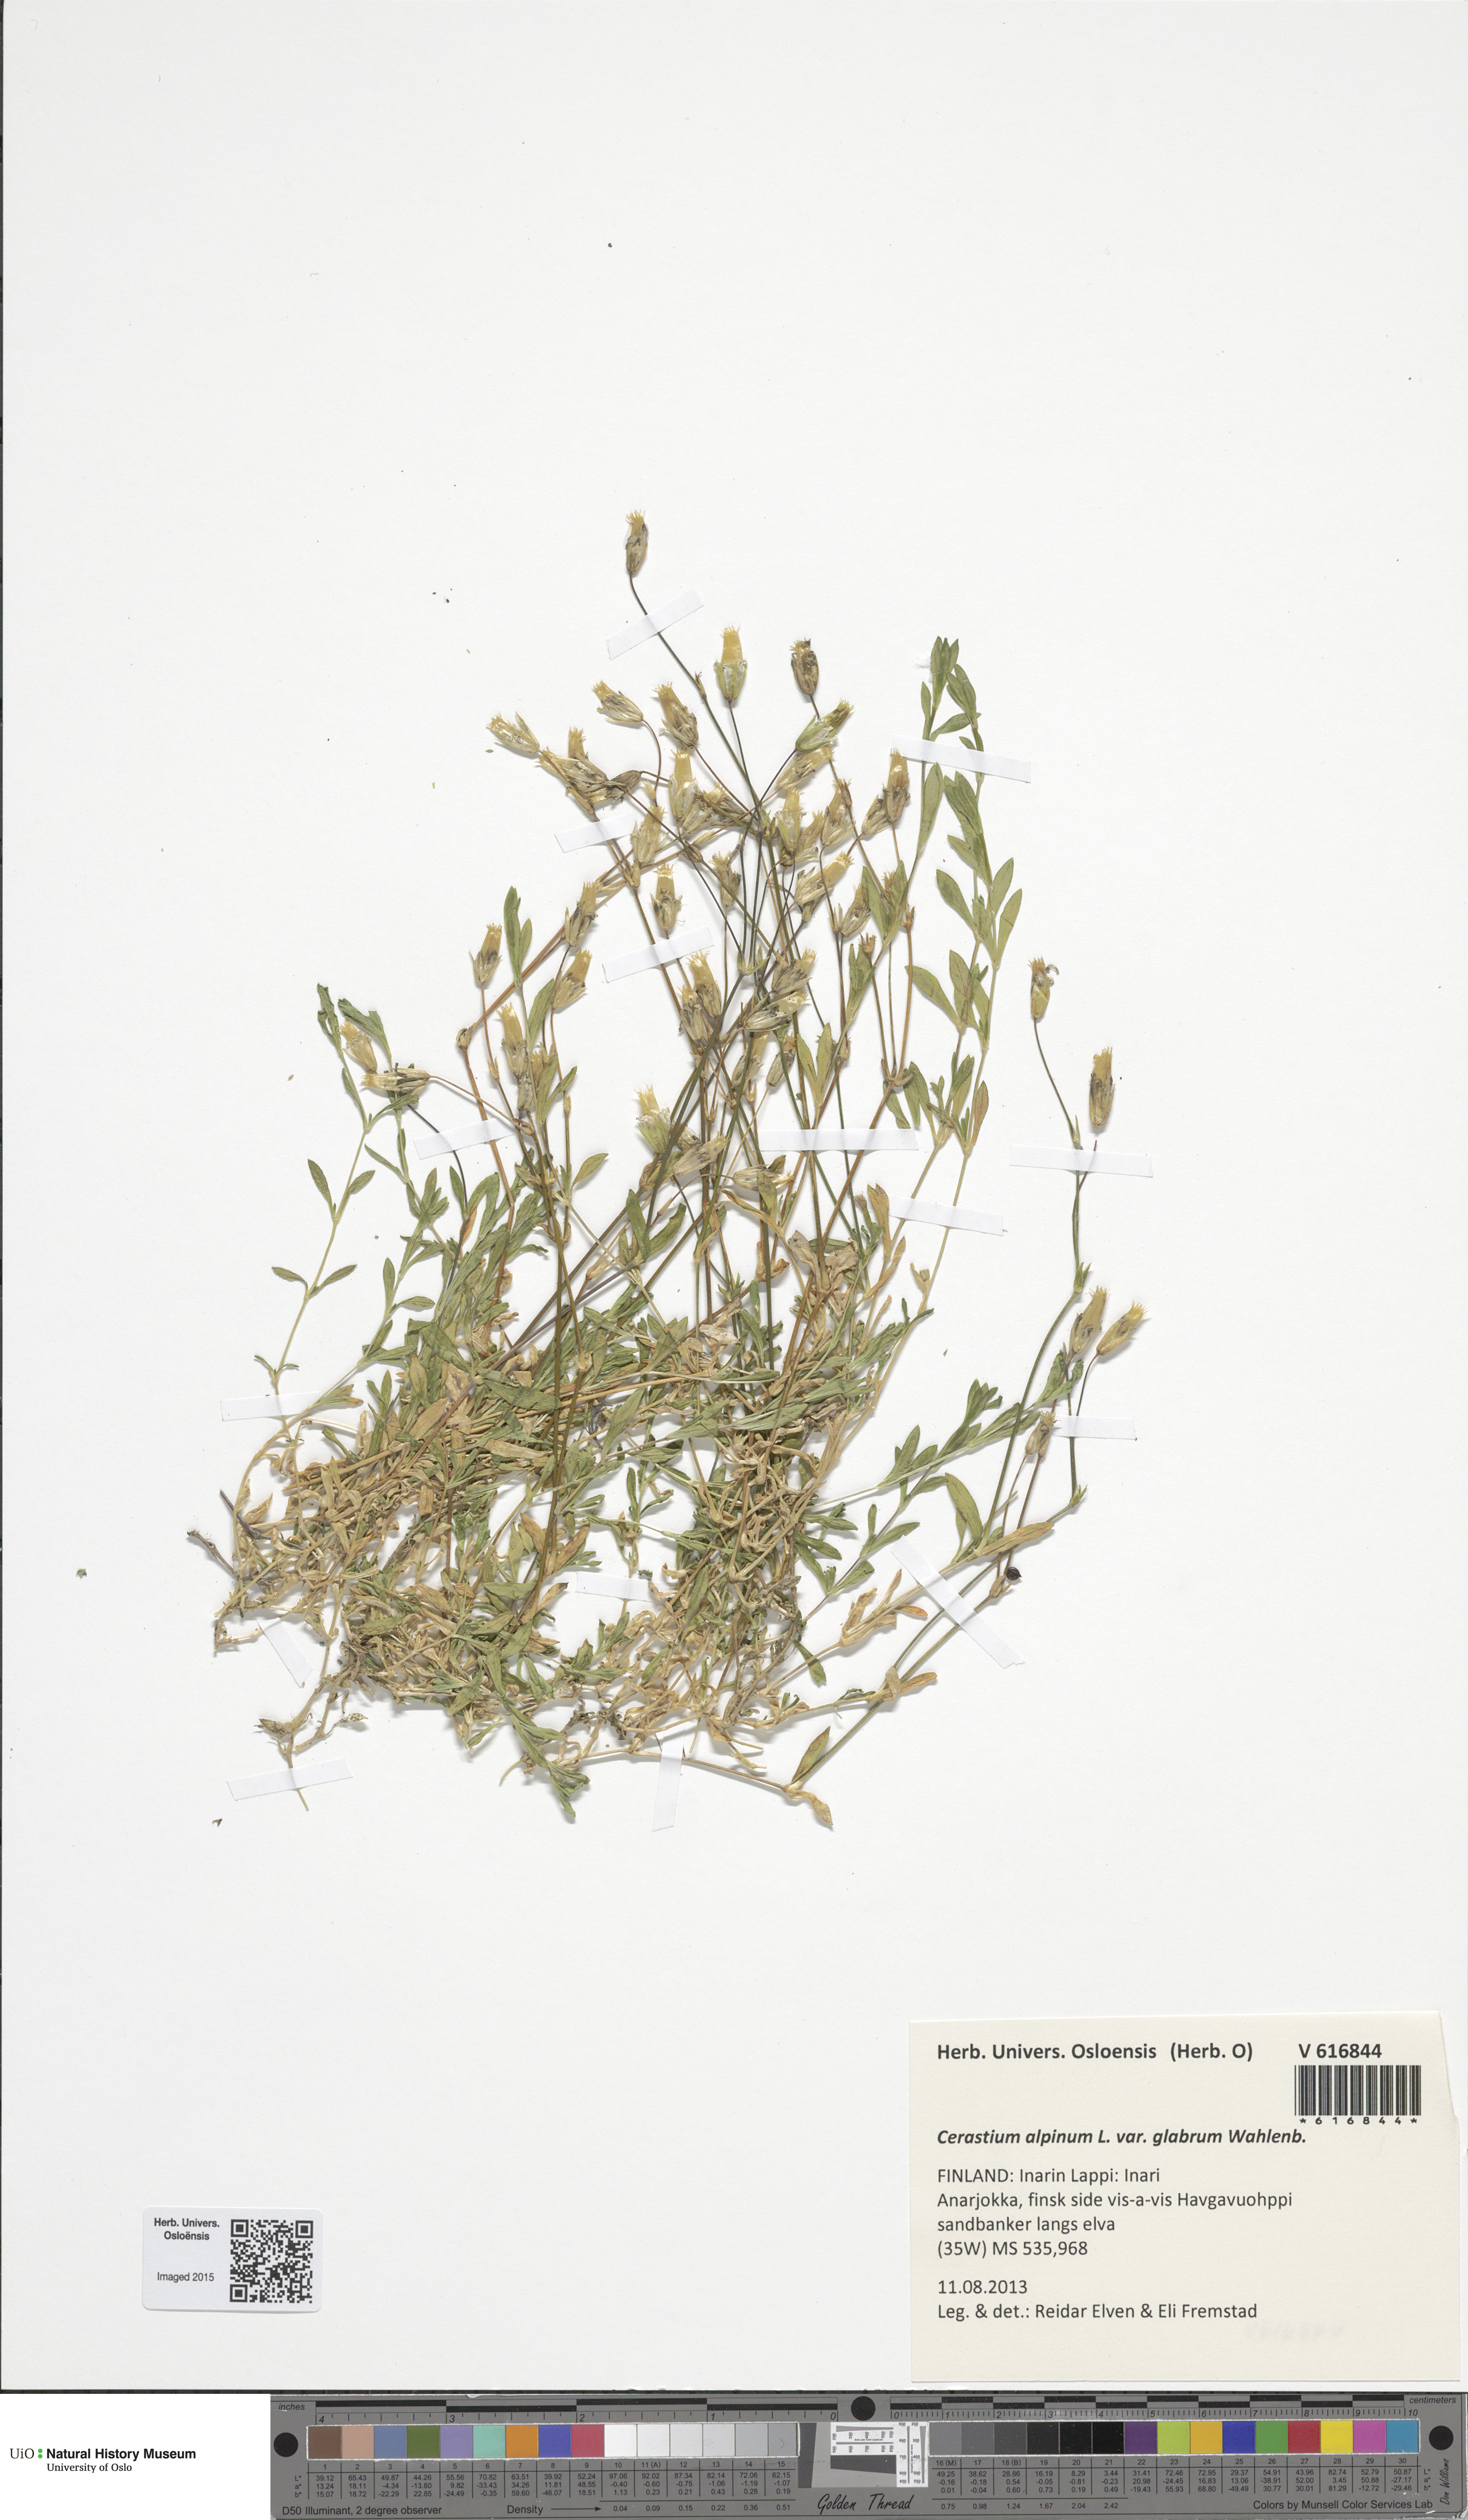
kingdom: Plantae
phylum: Tracheophyta
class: Magnoliopsida
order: Caryophyllales
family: Caryophyllaceae
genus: Cerastium
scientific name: Cerastium alpinum
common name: Alpine mouse-ear
